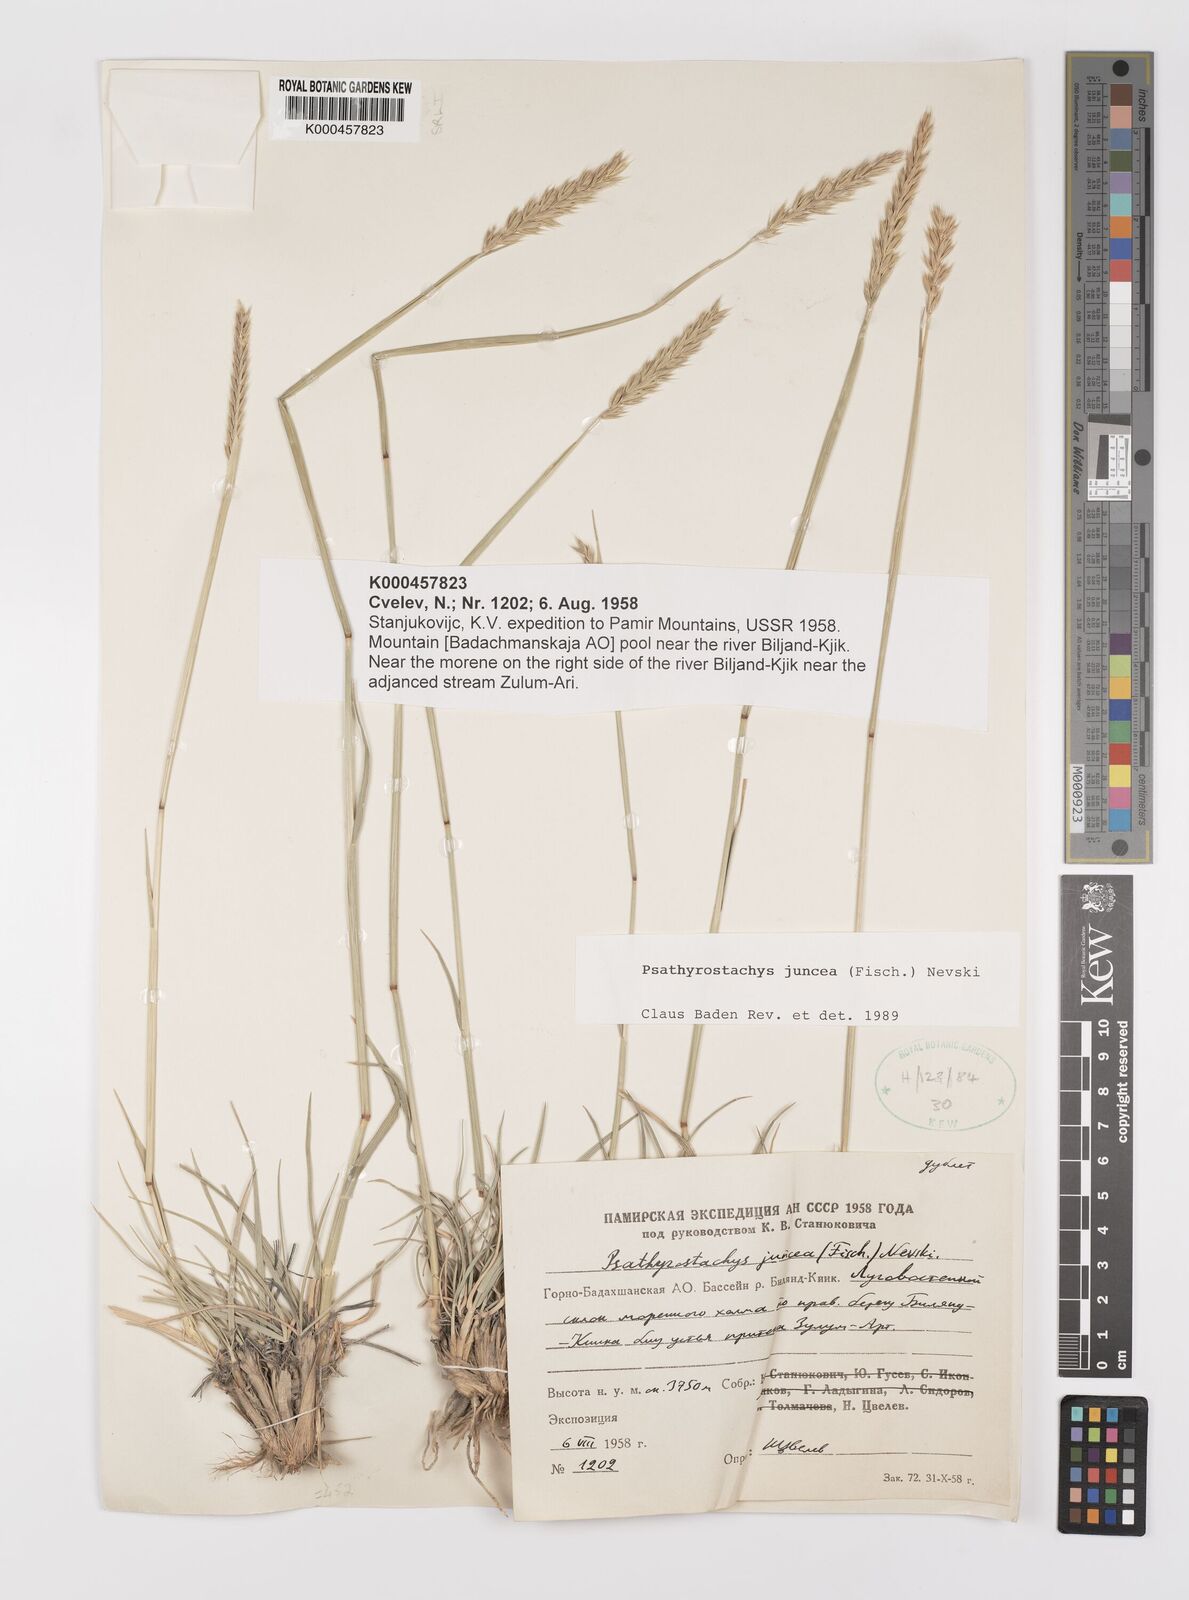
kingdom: Plantae
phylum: Tracheophyta
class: Liliopsida
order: Poales
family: Poaceae
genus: Psathyrostachys
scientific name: Psathyrostachys juncea
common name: Russian wildrye
